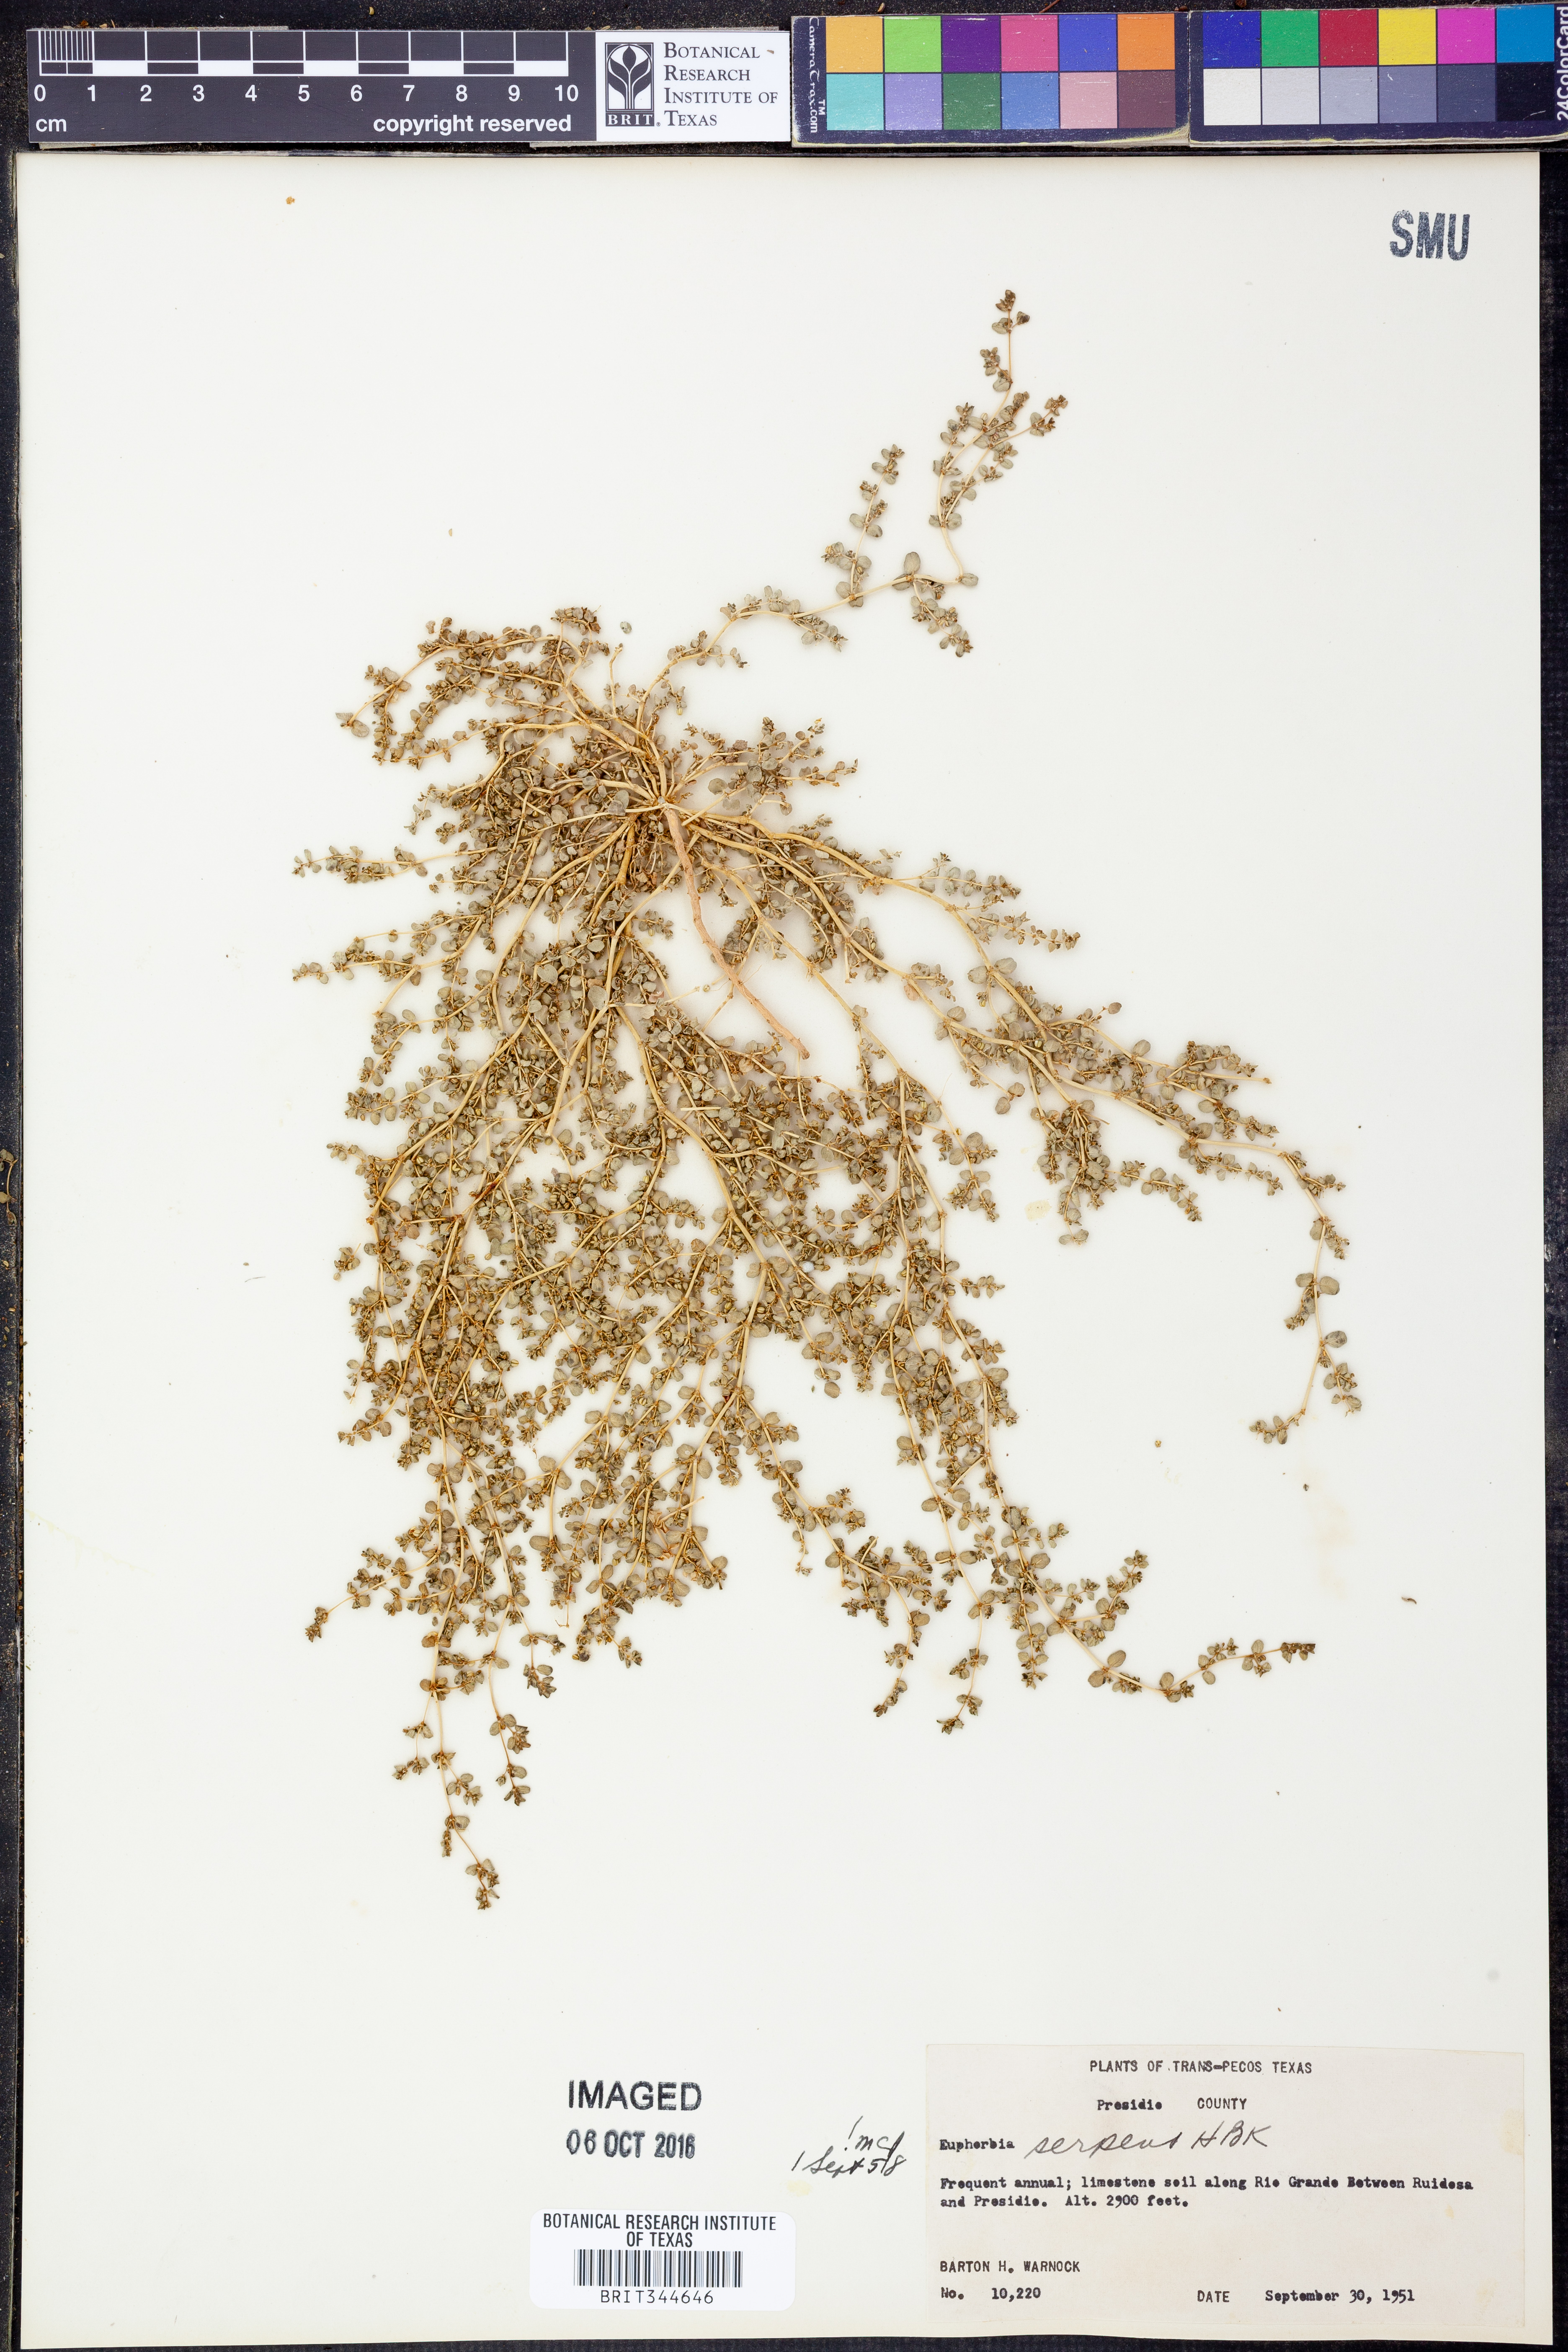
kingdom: Plantae
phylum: Tracheophyta
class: Magnoliopsida
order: Malpighiales
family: Euphorbiaceae
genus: Euphorbia
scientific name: Euphorbia serpens
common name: Matted sandmat
